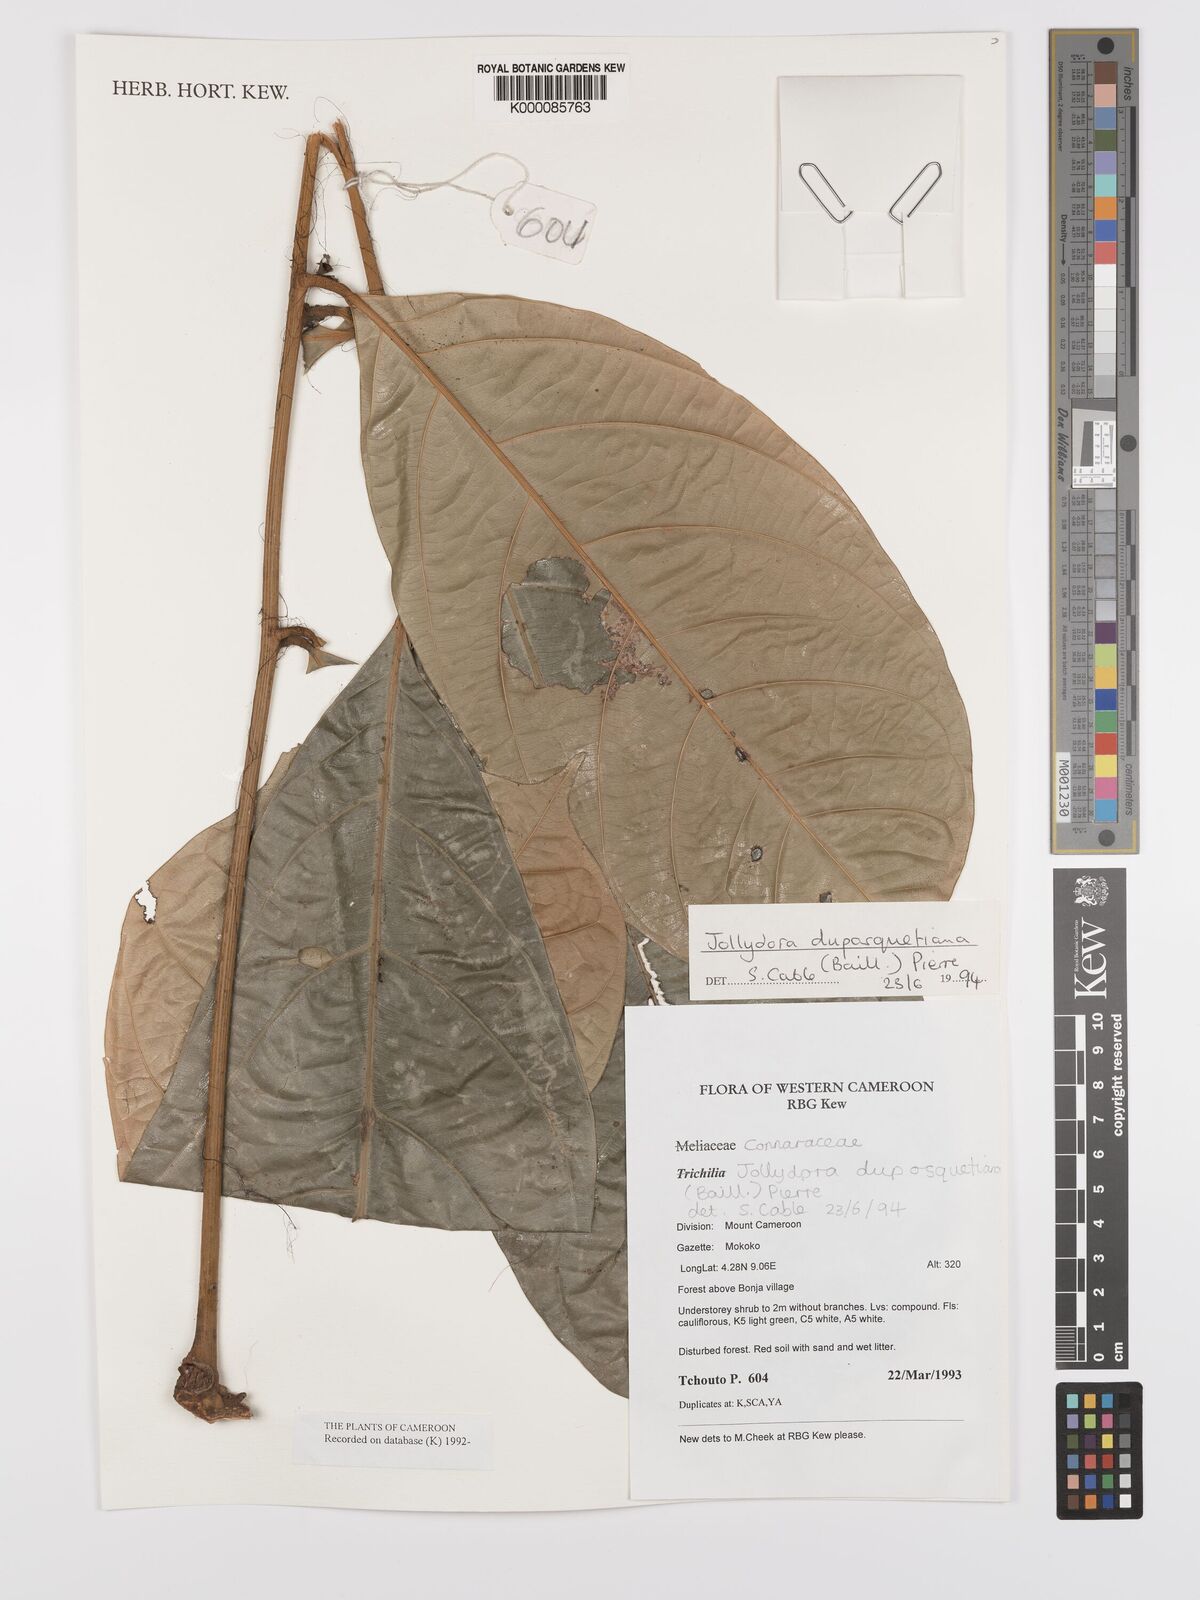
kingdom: Plantae
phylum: Tracheophyta
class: Magnoliopsida
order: Oxalidales
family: Connaraceae
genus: Jollydora
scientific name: Jollydora duparquetiana
